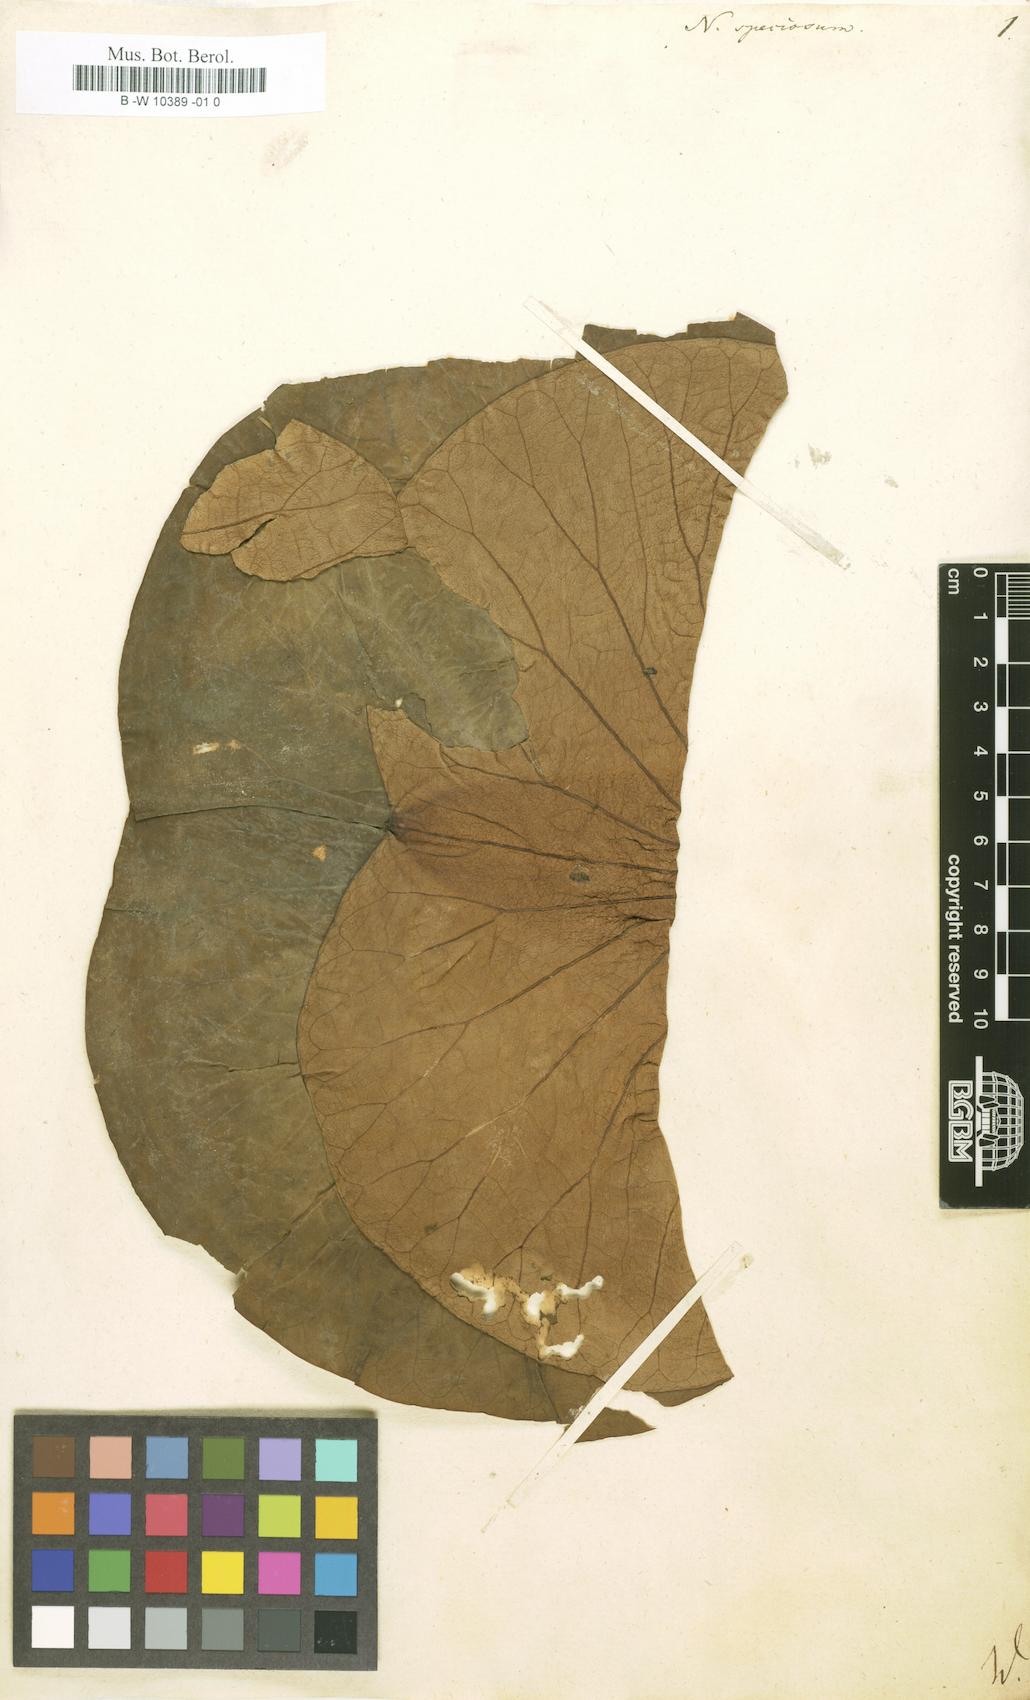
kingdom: Plantae
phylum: Tracheophyta
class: Magnoliopsida
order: Proteales
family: Nelumbonaceae
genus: Nelumbo
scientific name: Nelumbo nucifera
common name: Sacred lotus
